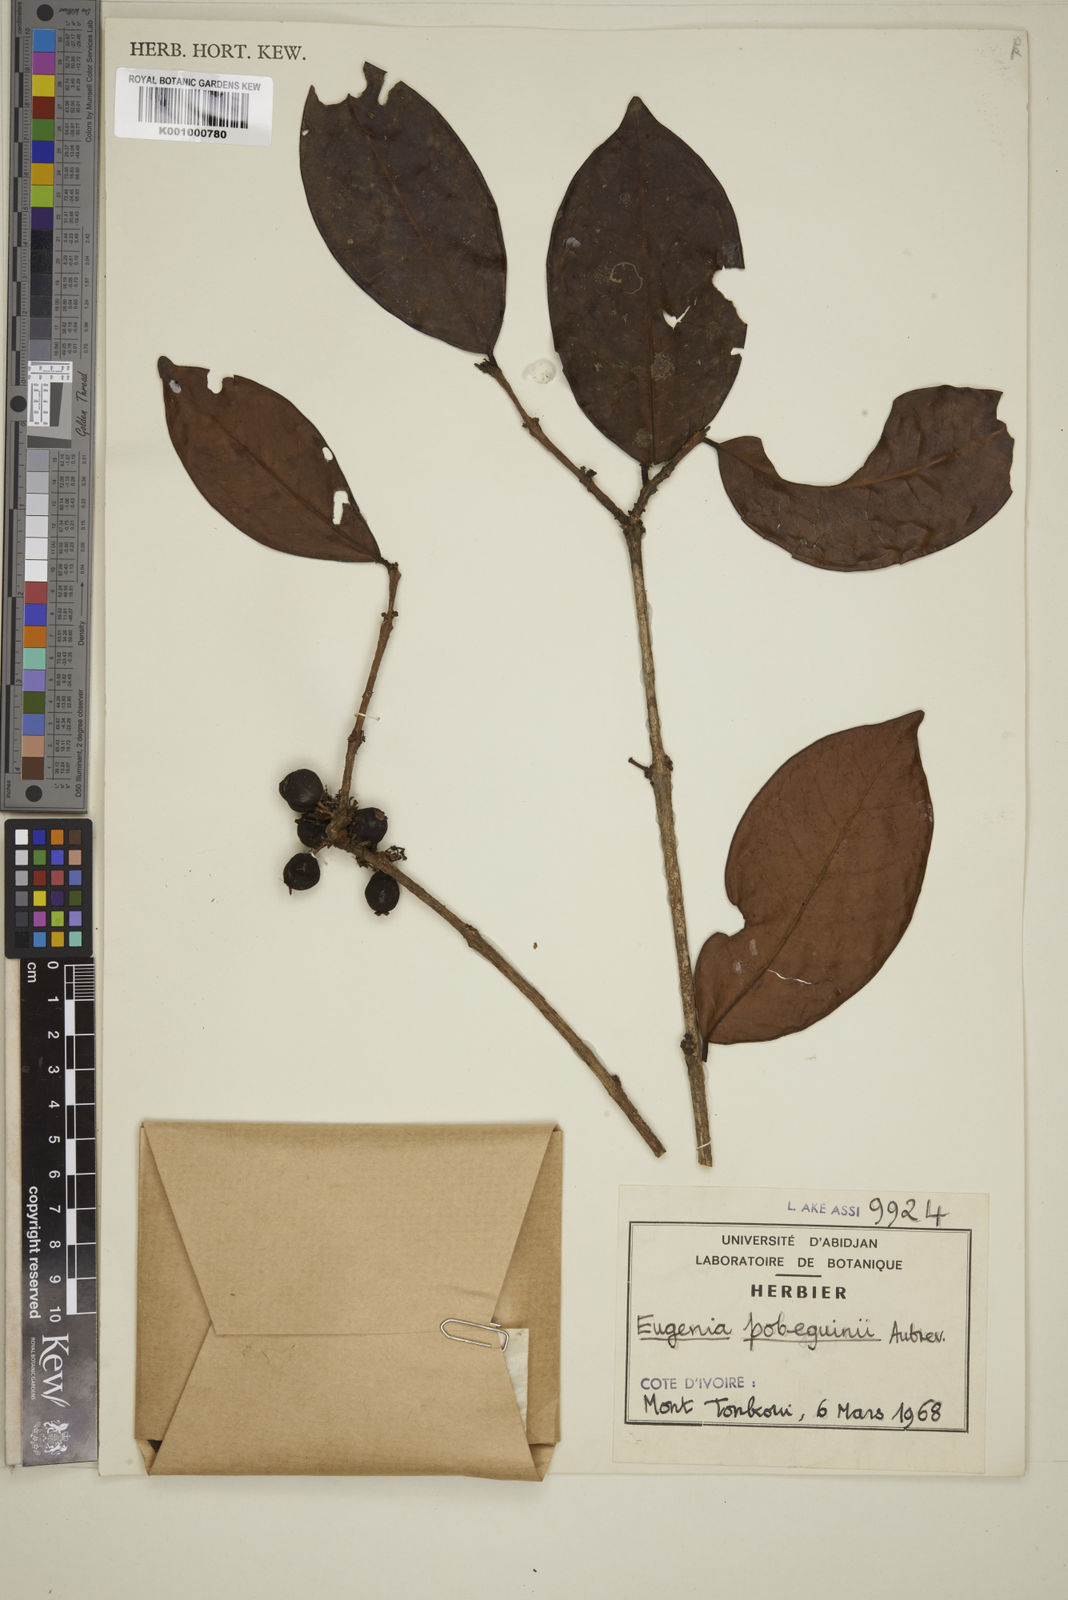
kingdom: Plantae
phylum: Tracheophyta
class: Magnoliopsida
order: Myrtales
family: Myrtaceae
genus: Eugenia
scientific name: Eugenia
